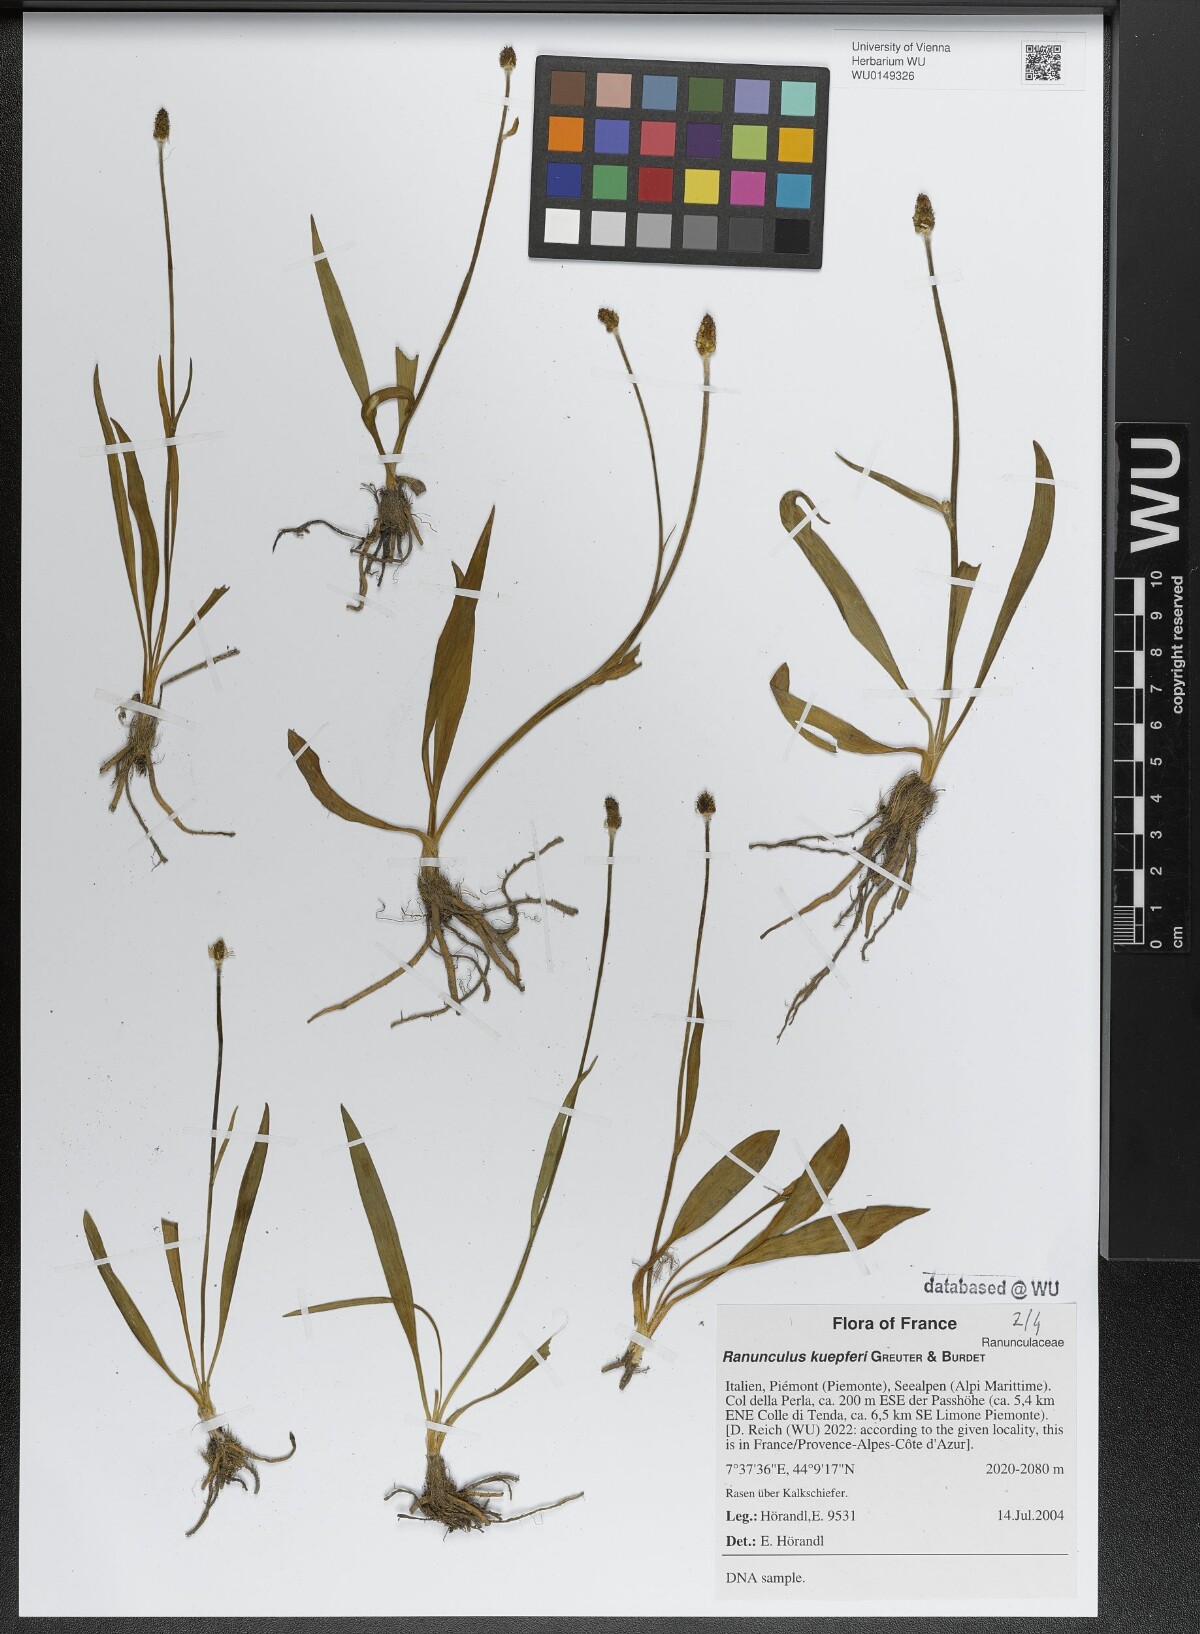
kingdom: Plantae
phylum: Tracheophyta
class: Magnoliopsida
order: Ranunculales
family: Ranunculaceae
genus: Ranunculus
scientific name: Ranunculus kuepferi
